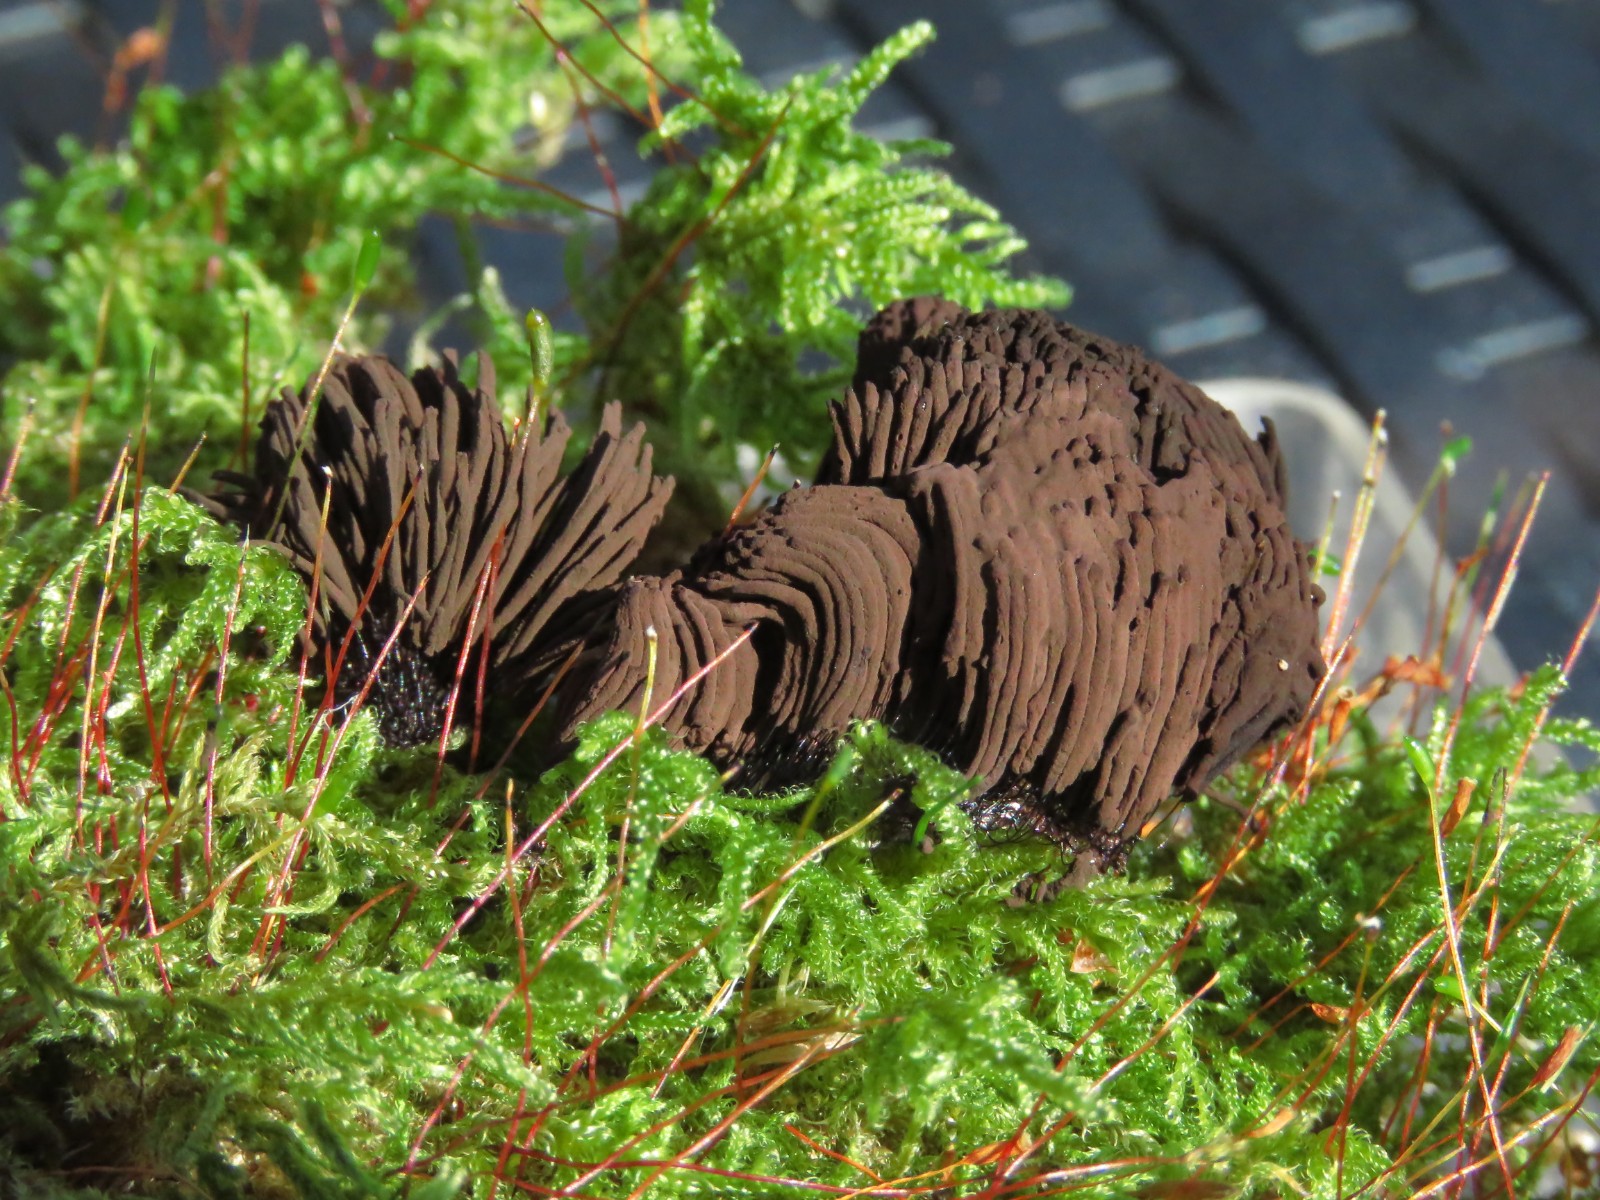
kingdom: Protozoa
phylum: Mycetozoa
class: Myxomycetes
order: Stemonitidales
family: Stemonitidaceae
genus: Stemonitis
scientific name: Stemonitis fusca
